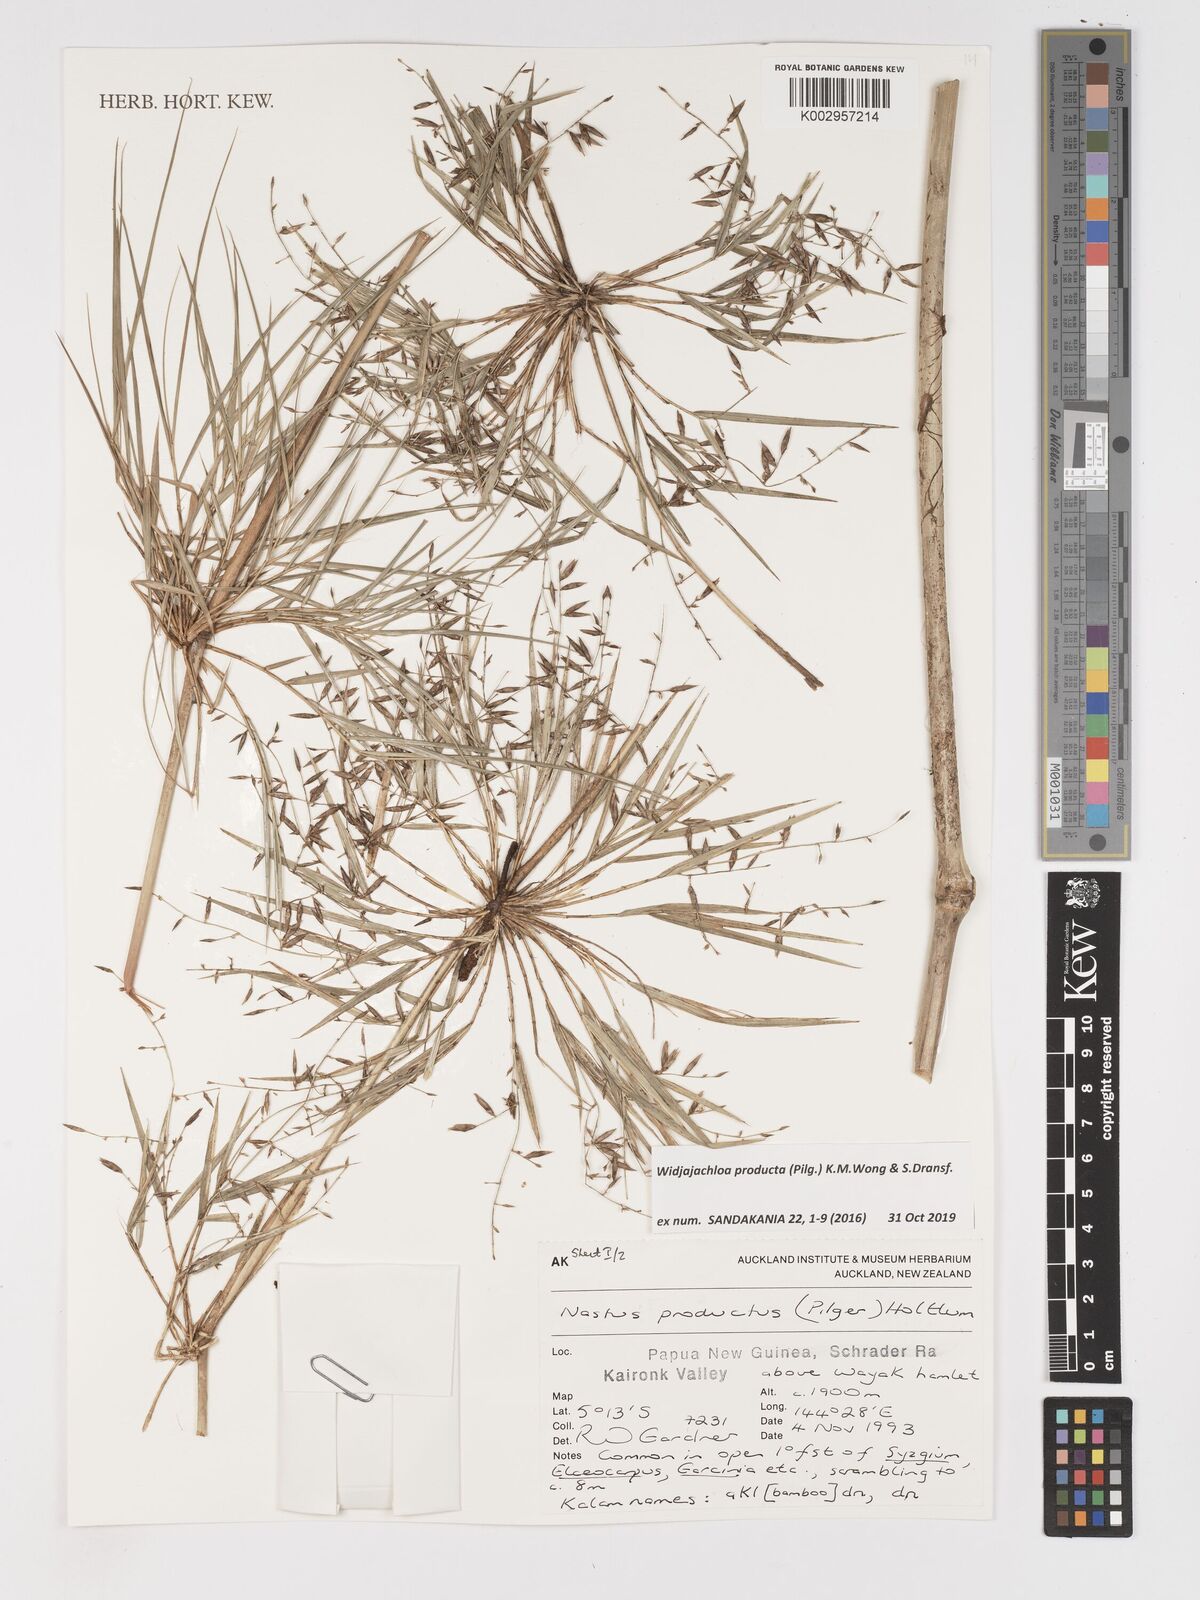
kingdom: Plantae
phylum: Tracheophyta
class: Liliopsida
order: Poales
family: Poaceae
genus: Widjajachloa
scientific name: Widjajachloa producta
